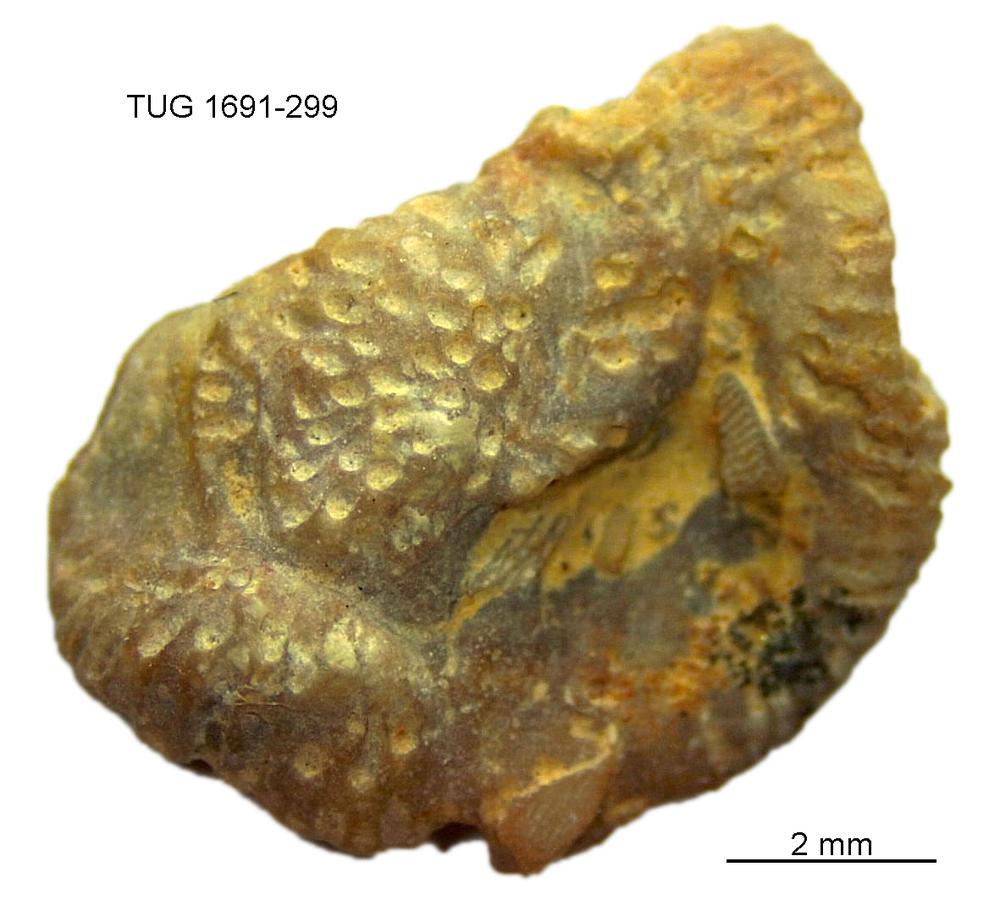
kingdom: Animalia
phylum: Bryozoa
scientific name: Bryozoa
